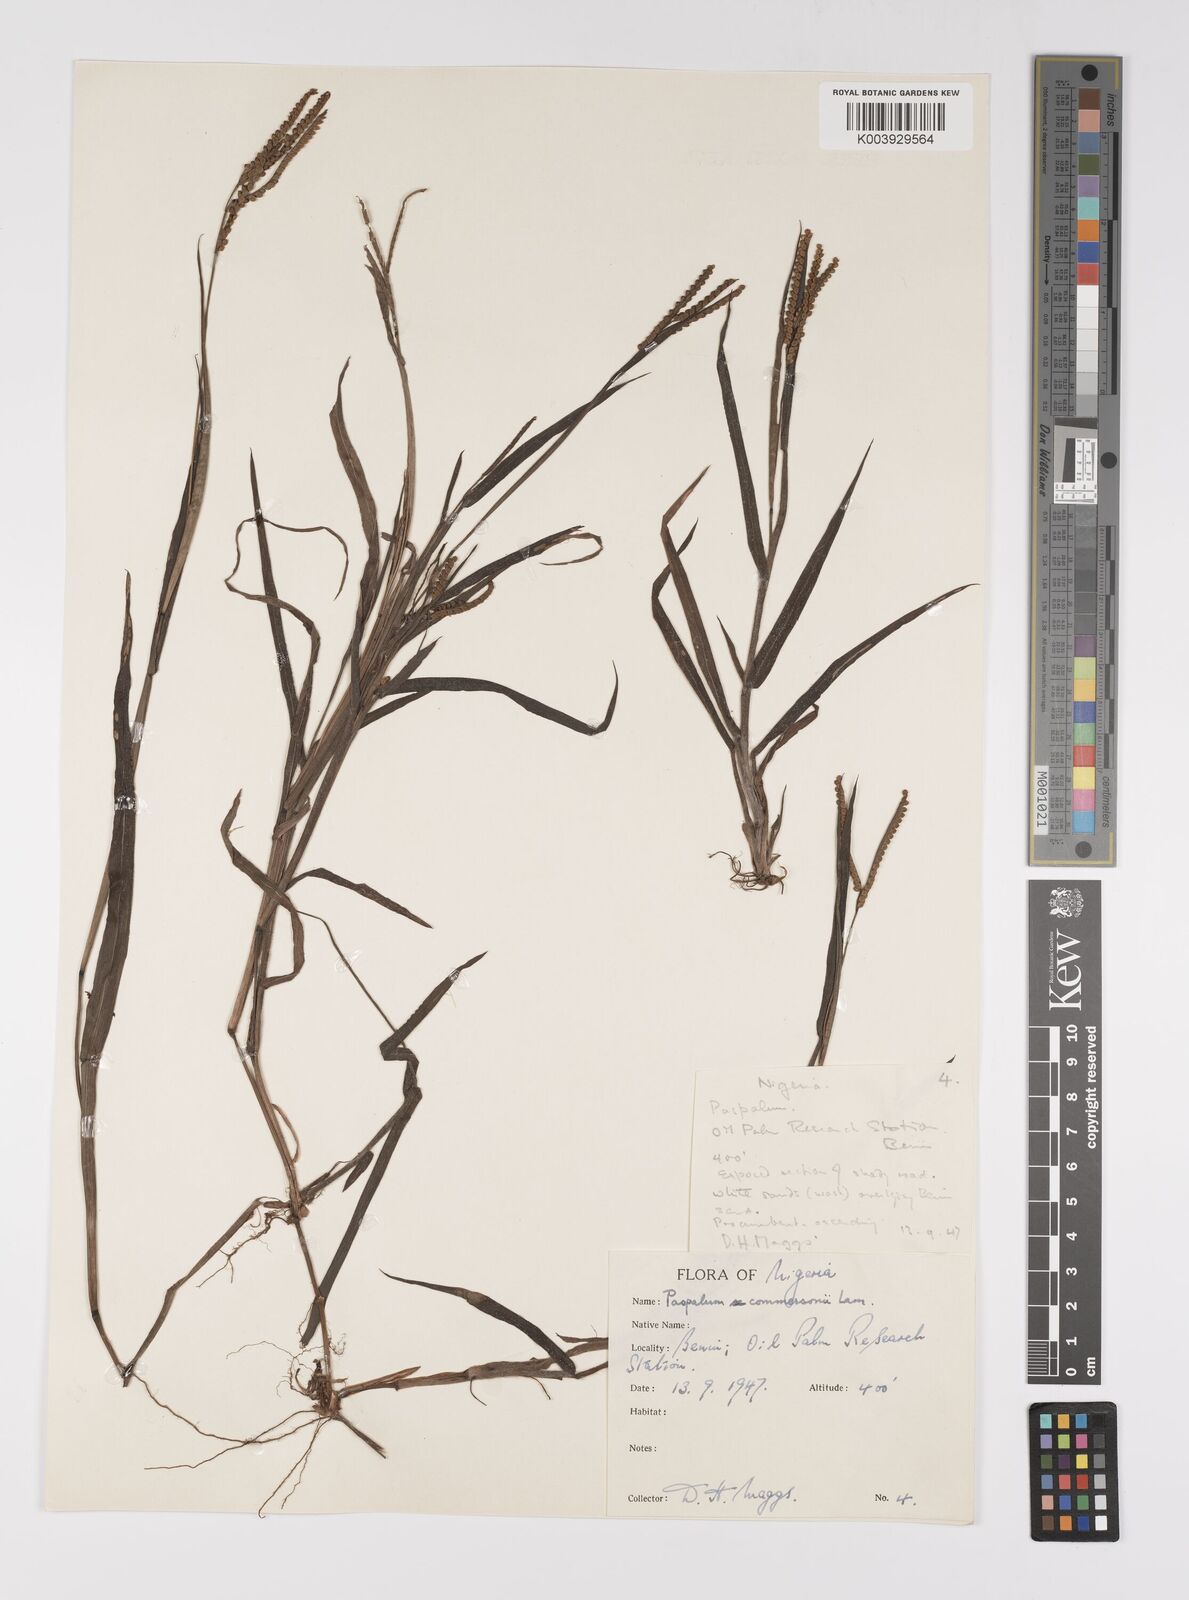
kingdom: Plantae
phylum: Tracheophyta
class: Liliopsida
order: Poales
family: Poaceae
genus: Paspalum
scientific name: Paspalum scrobiculatum
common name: Kodo millet
